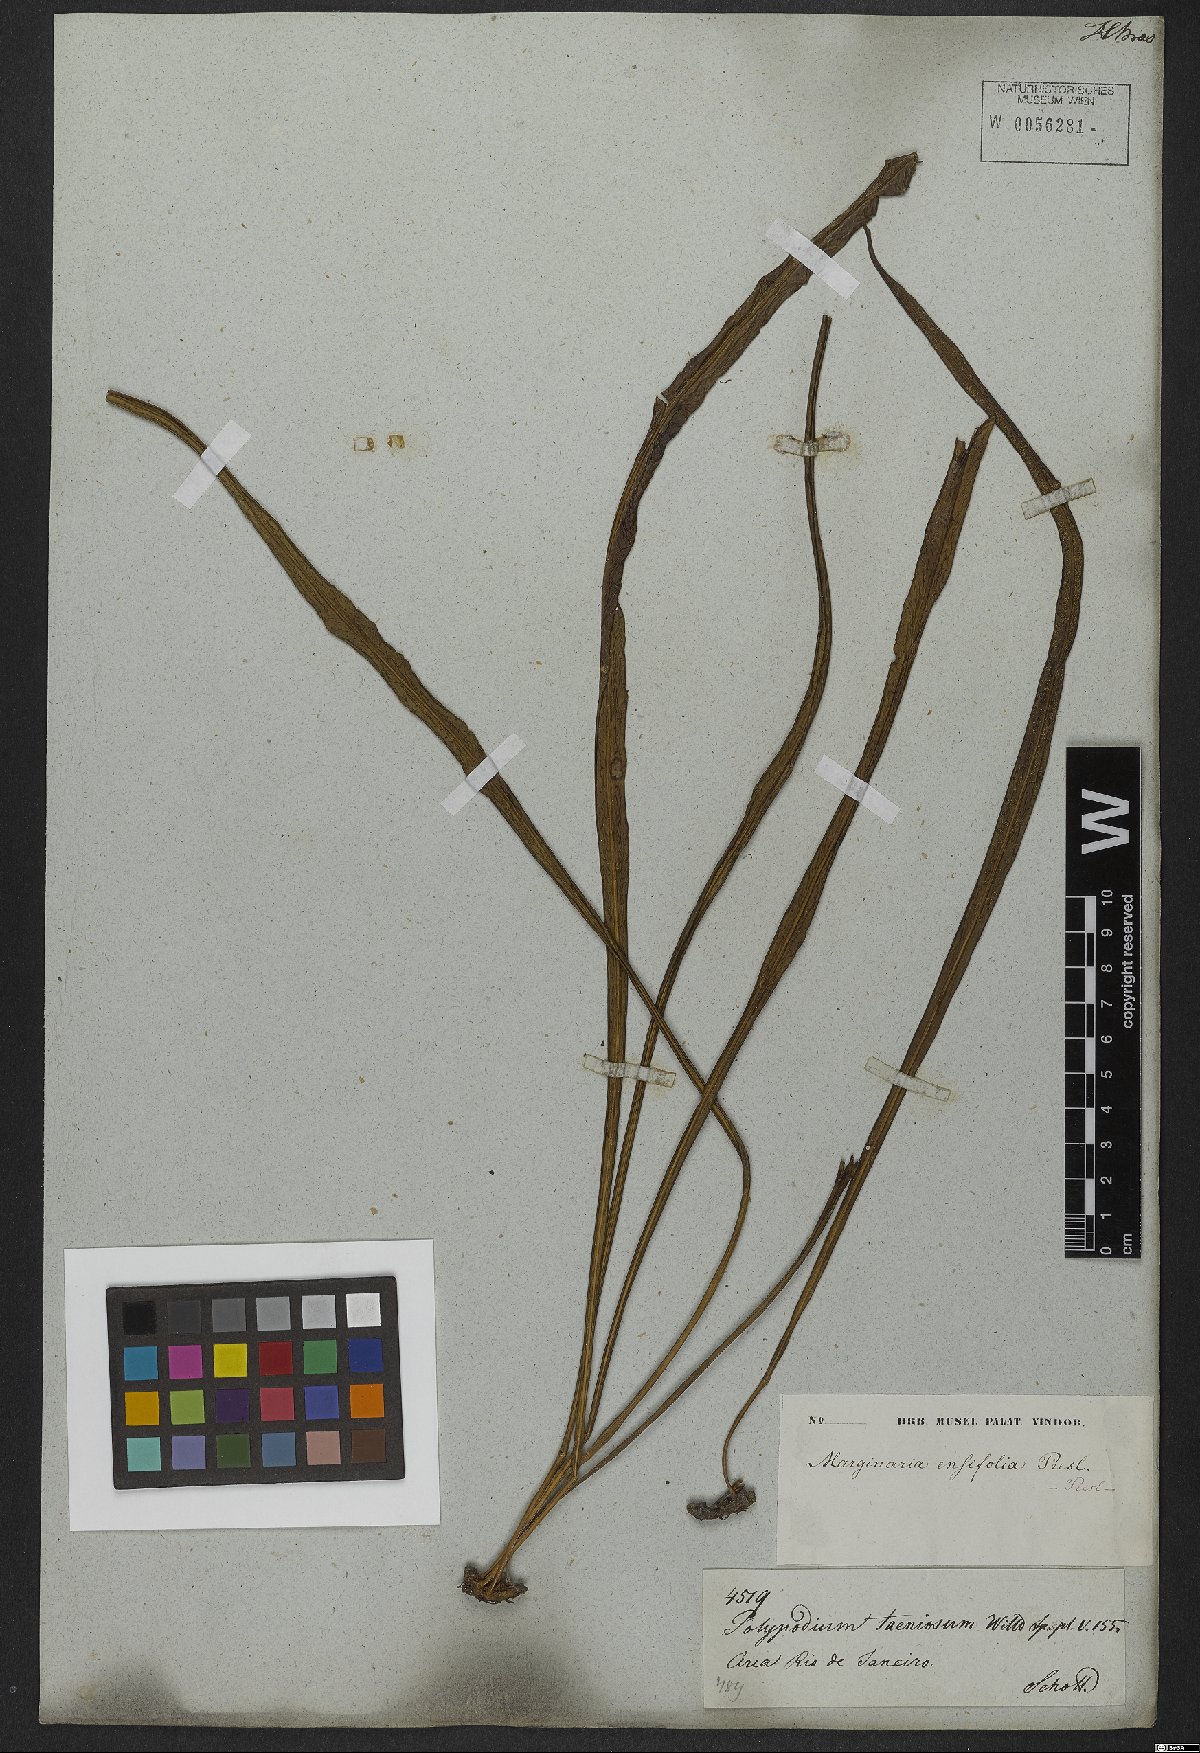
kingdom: Plantae
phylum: Tracheophyta
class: Polypodiopsida
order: Polypodiales
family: Polypodiaceae
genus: Campyloneurum
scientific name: Campyloneurum angustifolium
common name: Narrow-leaf strap fern
